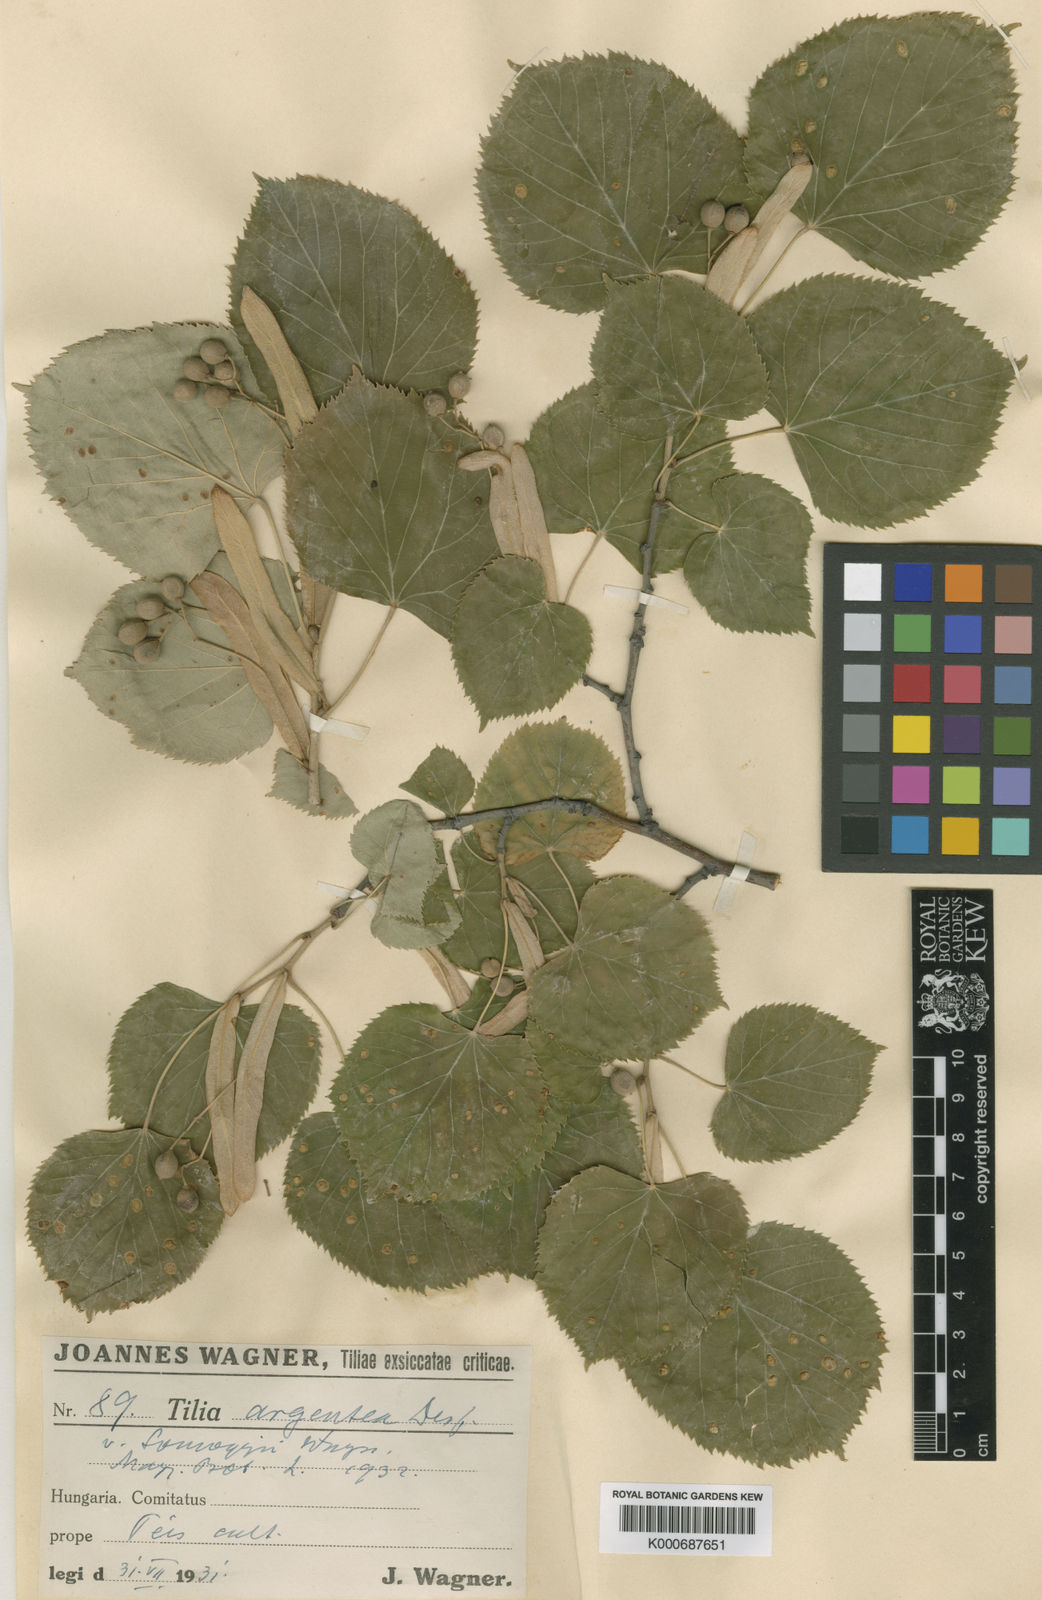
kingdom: Plantae
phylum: Tracheophyta
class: Magnoliopsida
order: Malvales
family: Malvaceae
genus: Tilia
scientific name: Tilia tomentosa
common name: Silver lime
